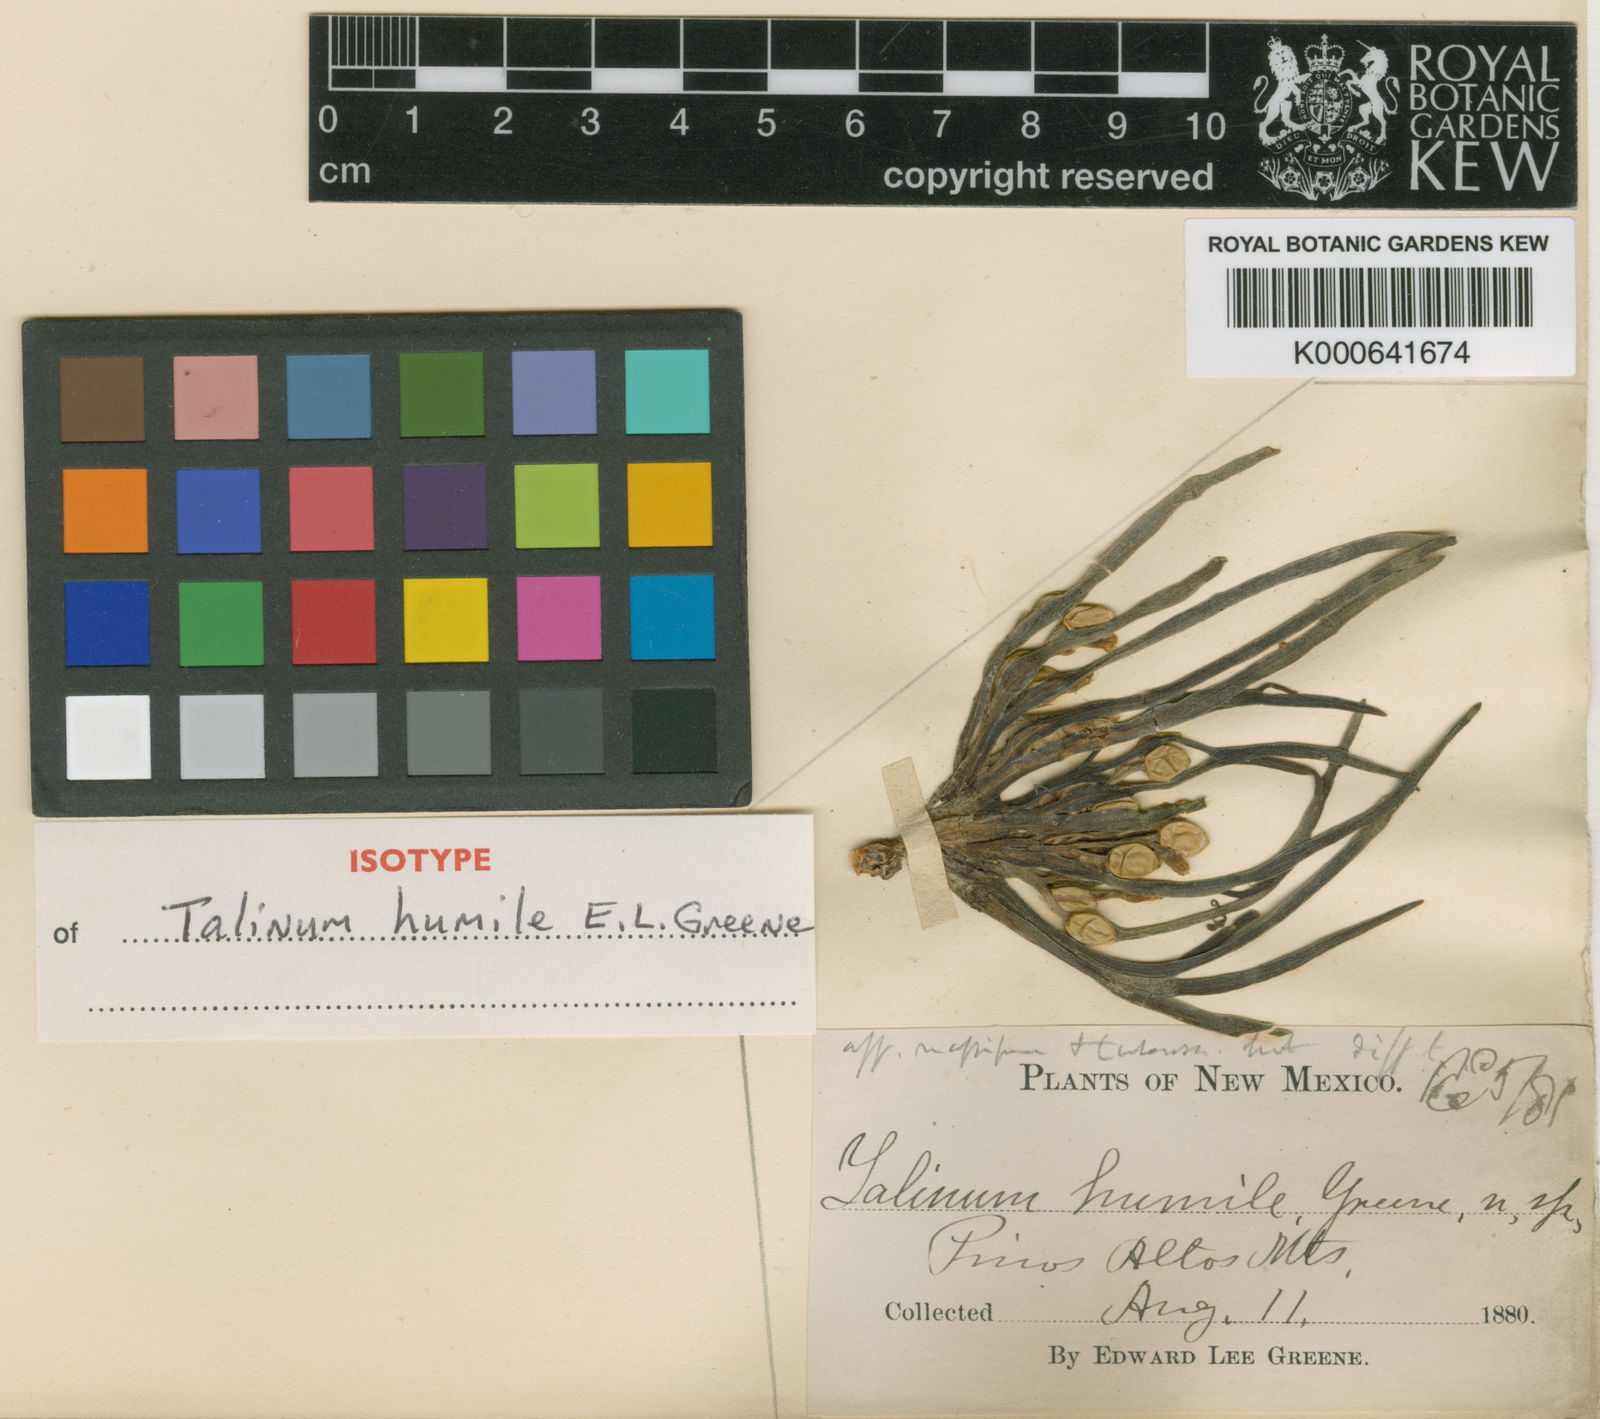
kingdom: Plantae
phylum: Tracheophyta
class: Magnoliopsida
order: Caryophyllales
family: Montiaceae
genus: Phemeranthus
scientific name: Phemeranthus humilis
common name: Pinos altos fameflower
